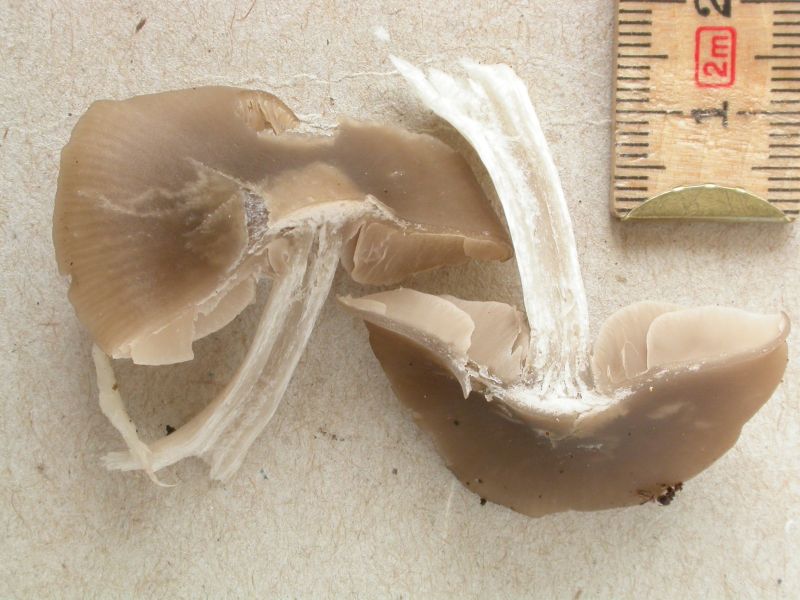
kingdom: Fungi
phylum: Basidiomycota
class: Agaricomycetes
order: Agaricales
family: Entolomataceae
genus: Entocybe
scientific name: Entocybe turbida
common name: plantage-rødblad
